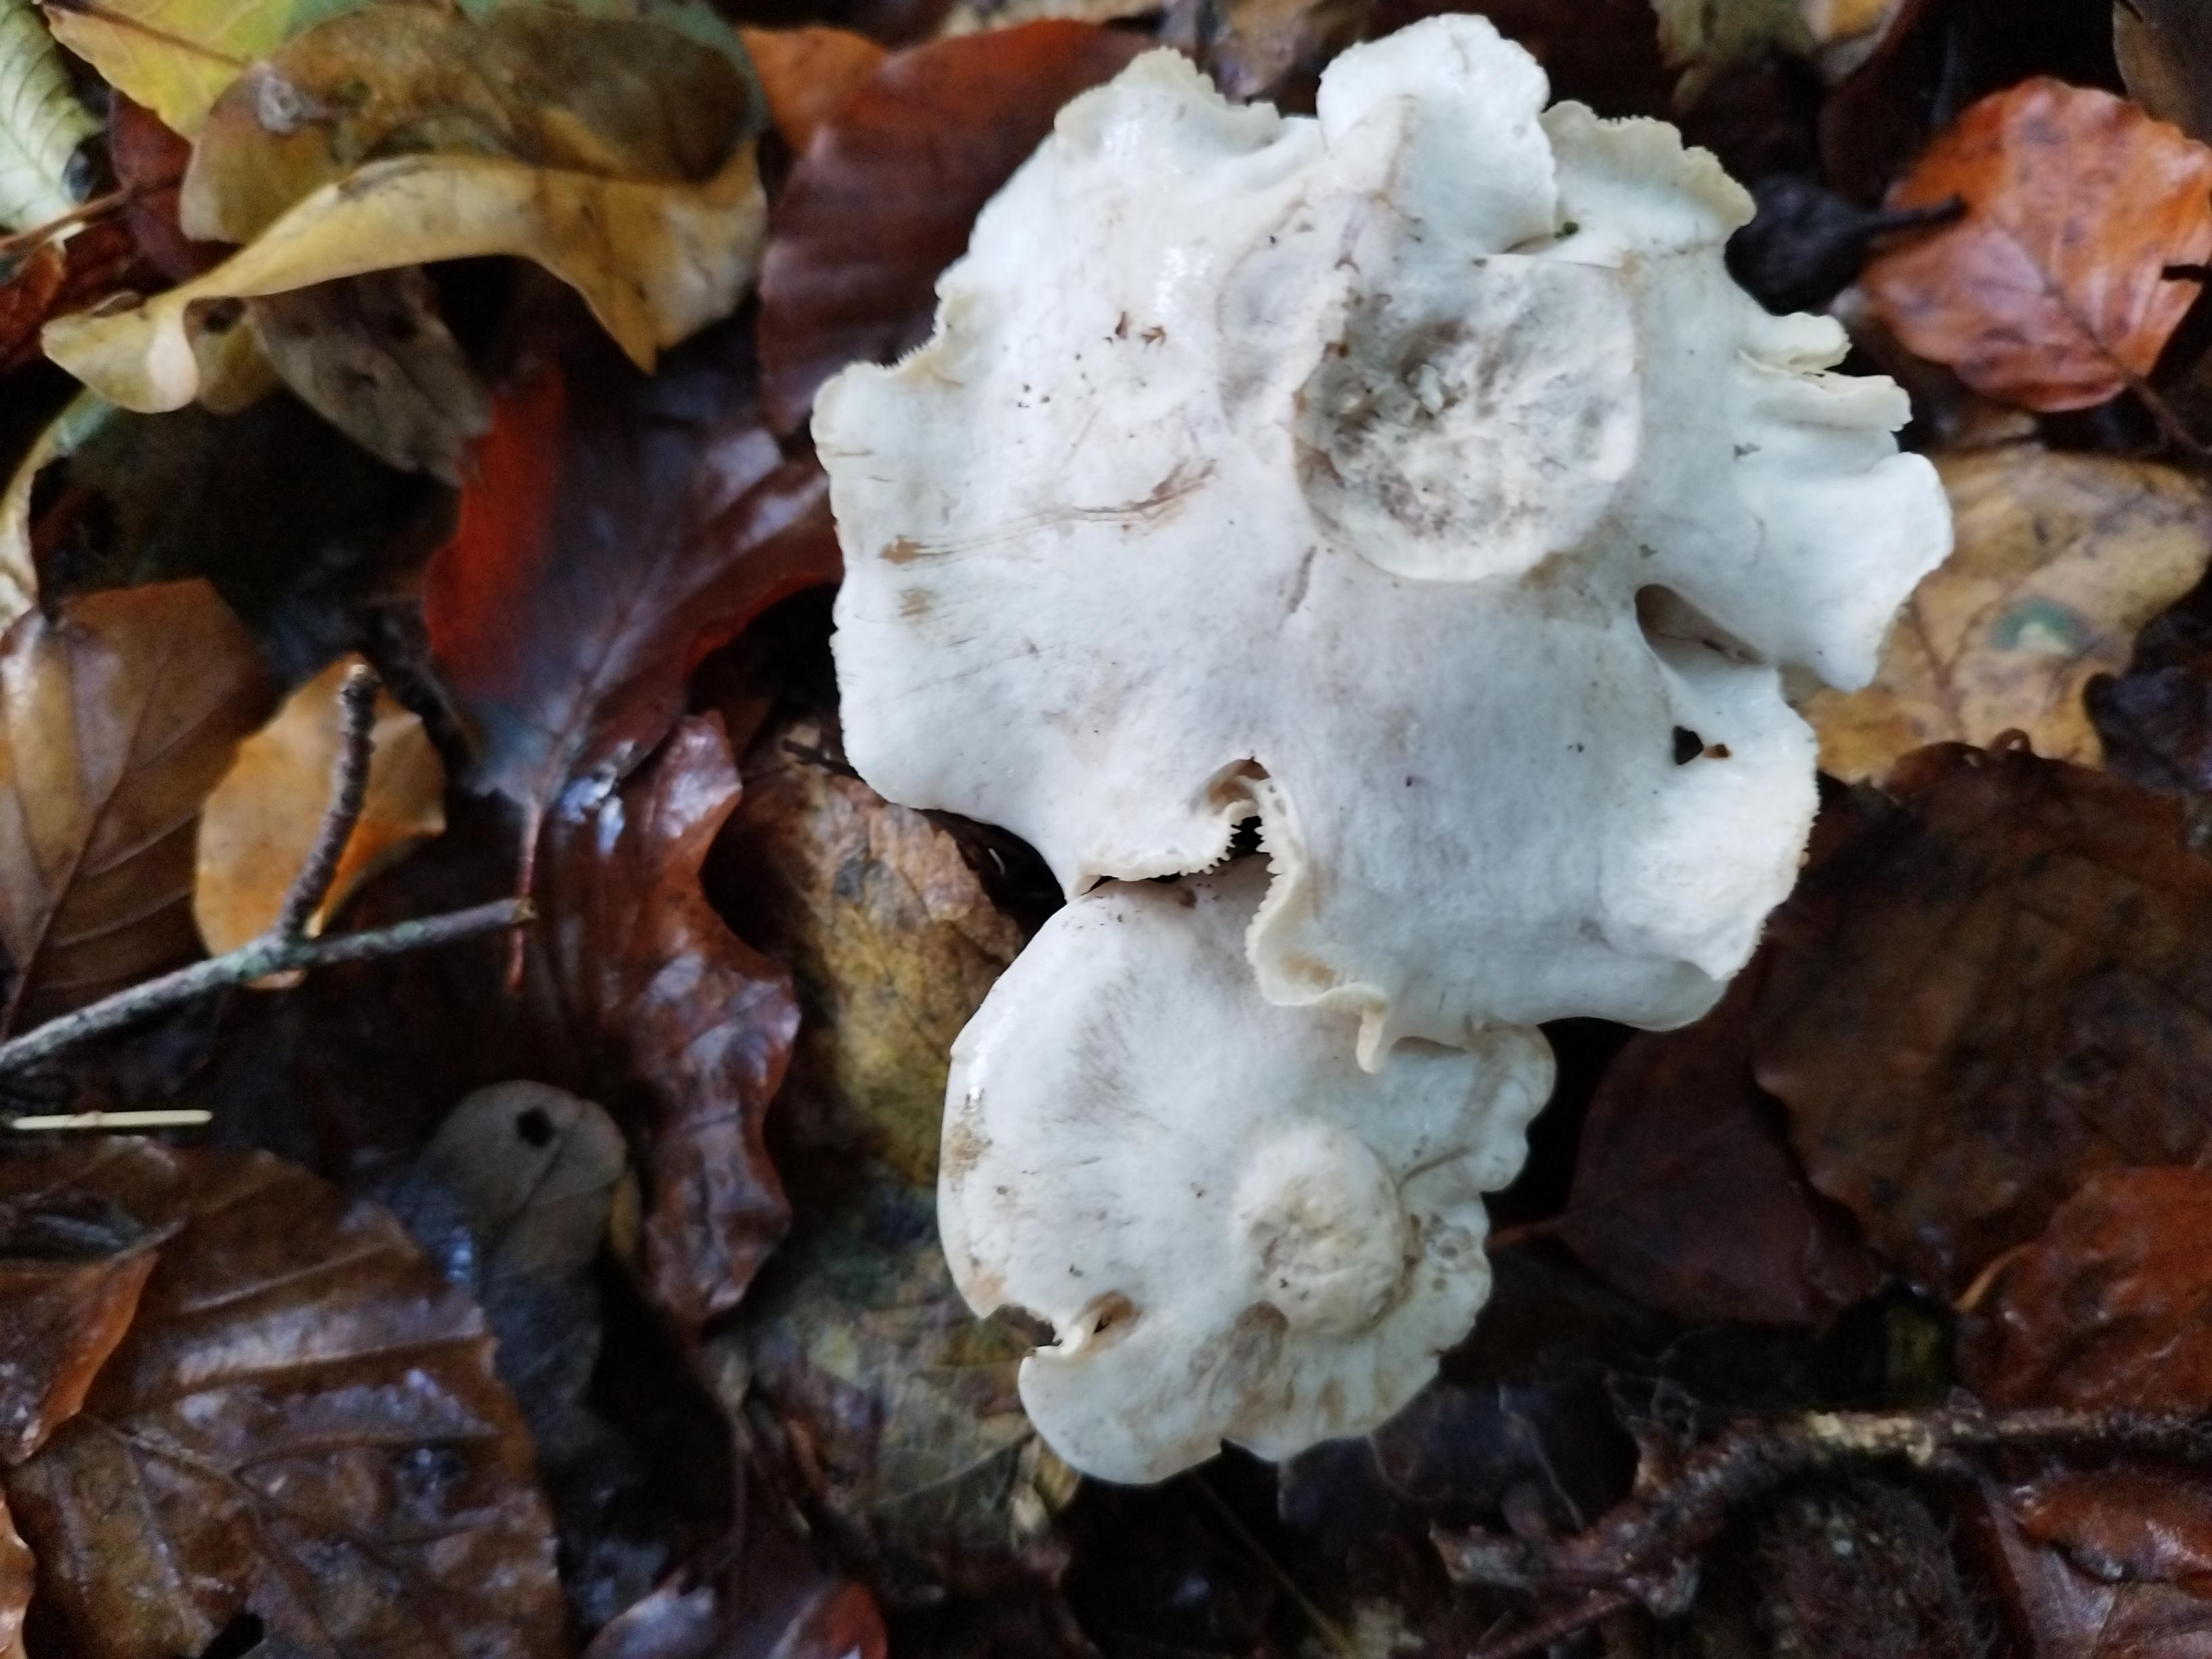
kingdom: Fungi
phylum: Basidiomycota
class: Agaricomycetes
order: Agaricales
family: Tricholomataceae
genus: Leucocybe
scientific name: Leucocybe connata
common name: knippe-tragthat
